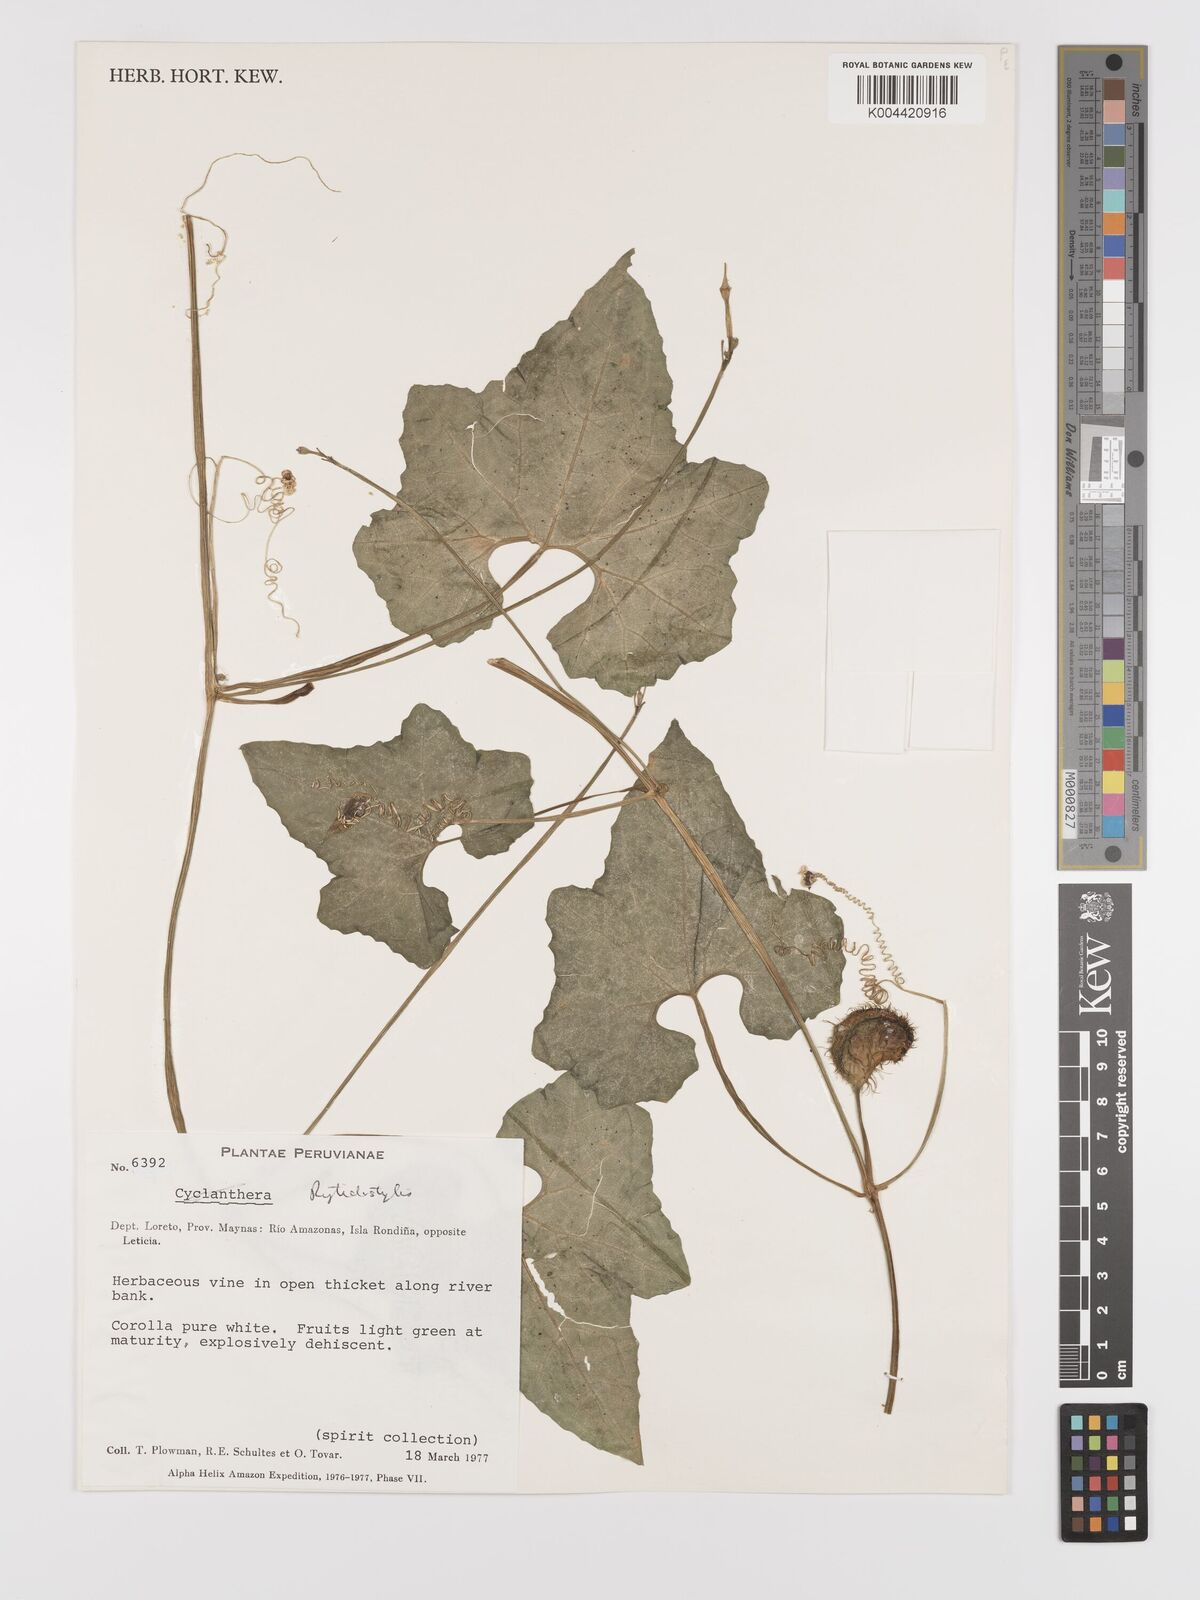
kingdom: Plantae
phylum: Tracheophyta
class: Magnoliopsida
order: Cucurbitales
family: Cucurbitaceae
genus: Cyclanthera
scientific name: Cyclanthera carthagenensis
